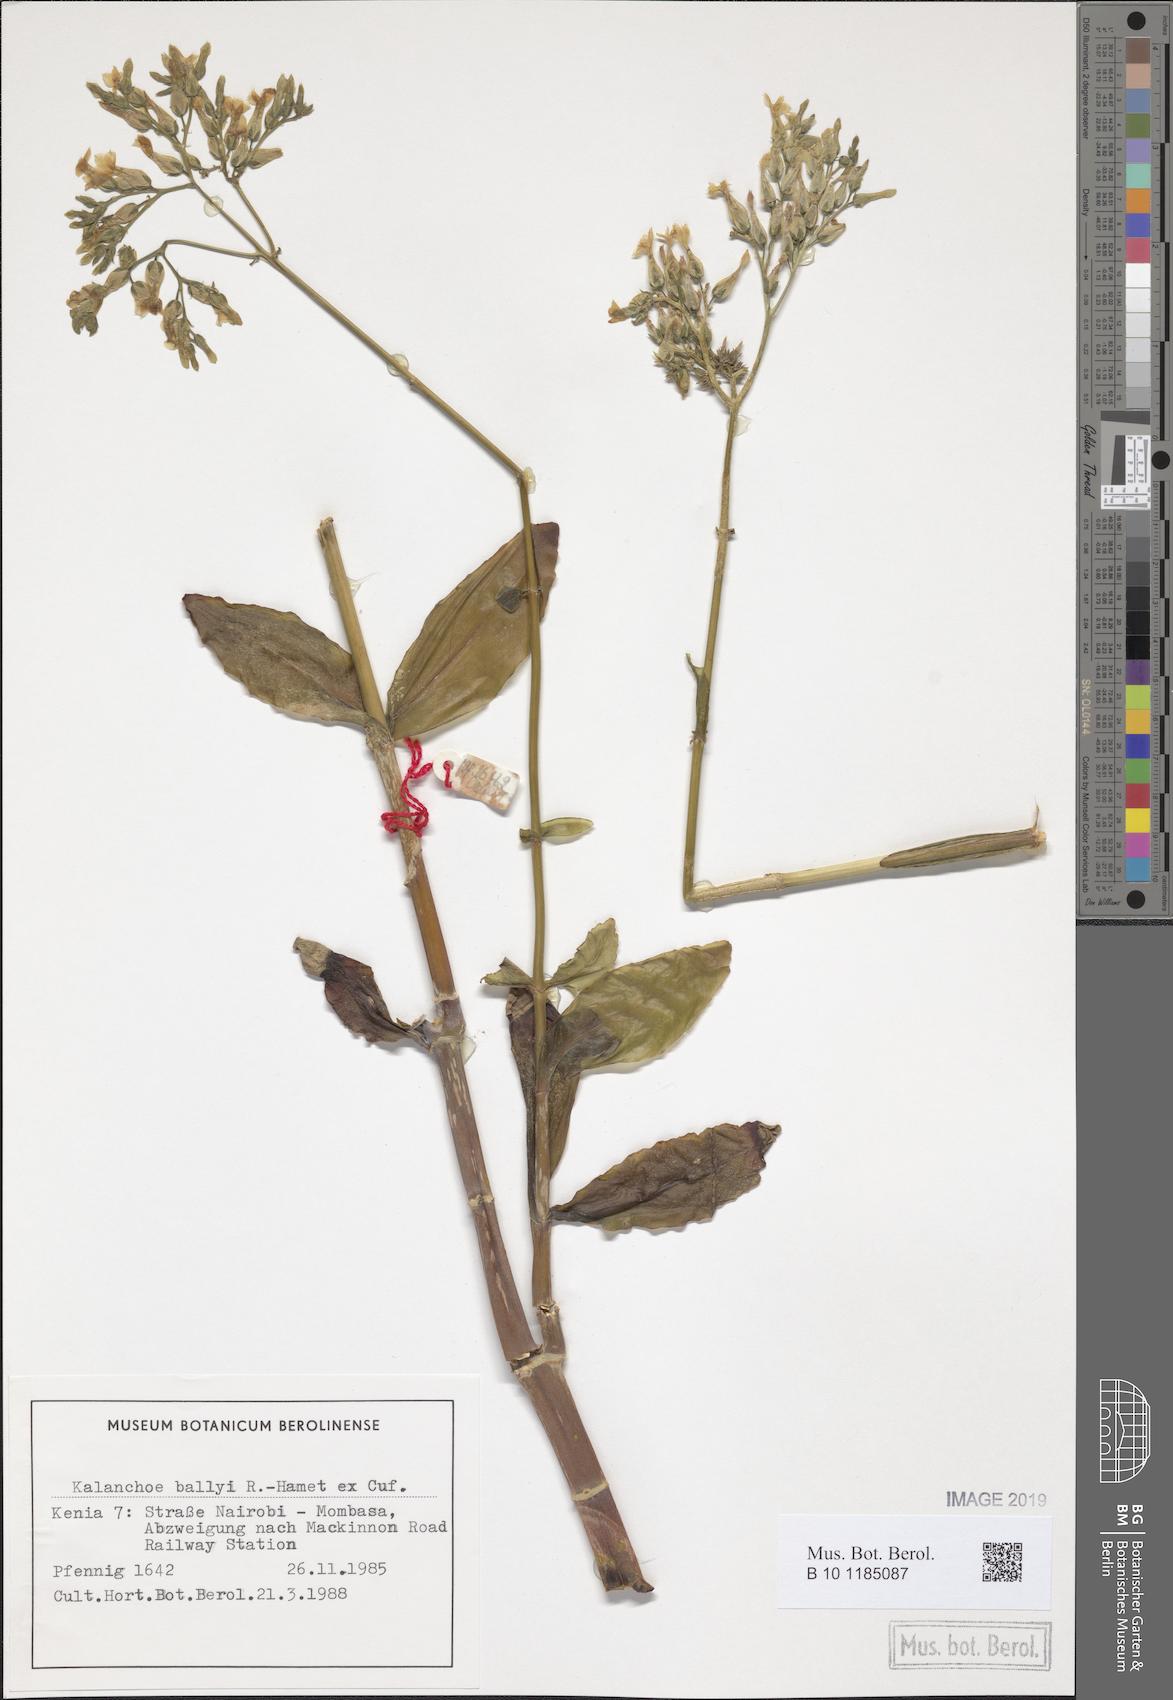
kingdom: Plantae
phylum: Tracheophyta
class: Magnoliopsida
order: Saxifragales
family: Crassulaceae
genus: Kalanchoe
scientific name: Kalanchoe ballyi
